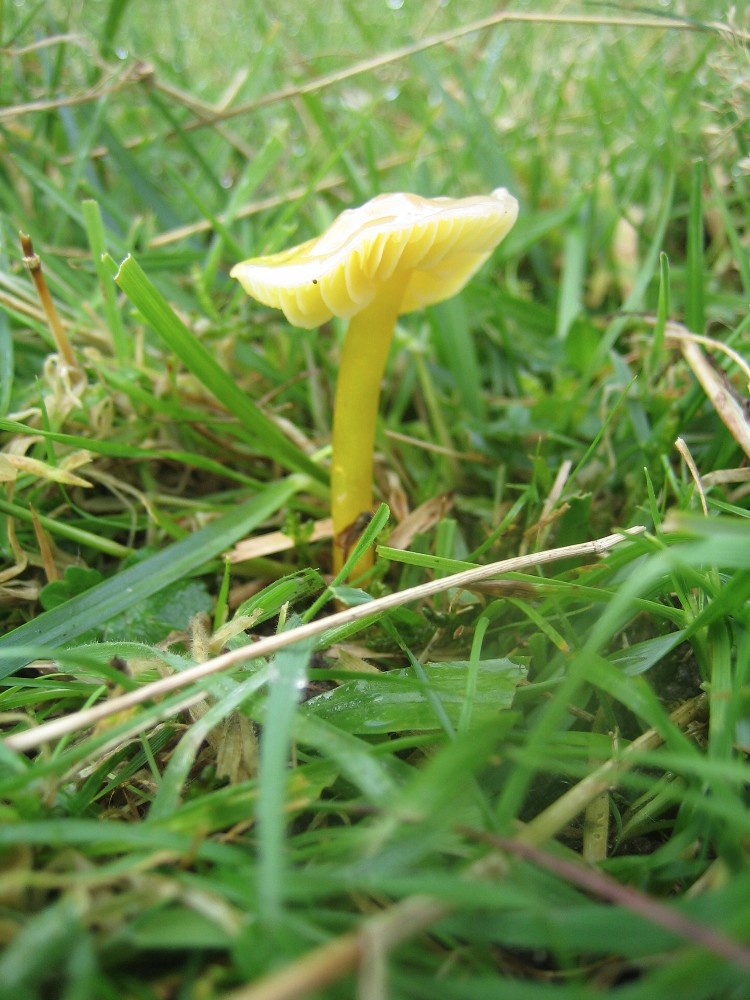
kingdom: Fungi
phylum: Basidiomycota
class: Agaricomycetes
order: Agaricales
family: Hygrophoraceae
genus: Hygrocybe
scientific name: Hygrocybe chlorophana
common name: gul vokshat
